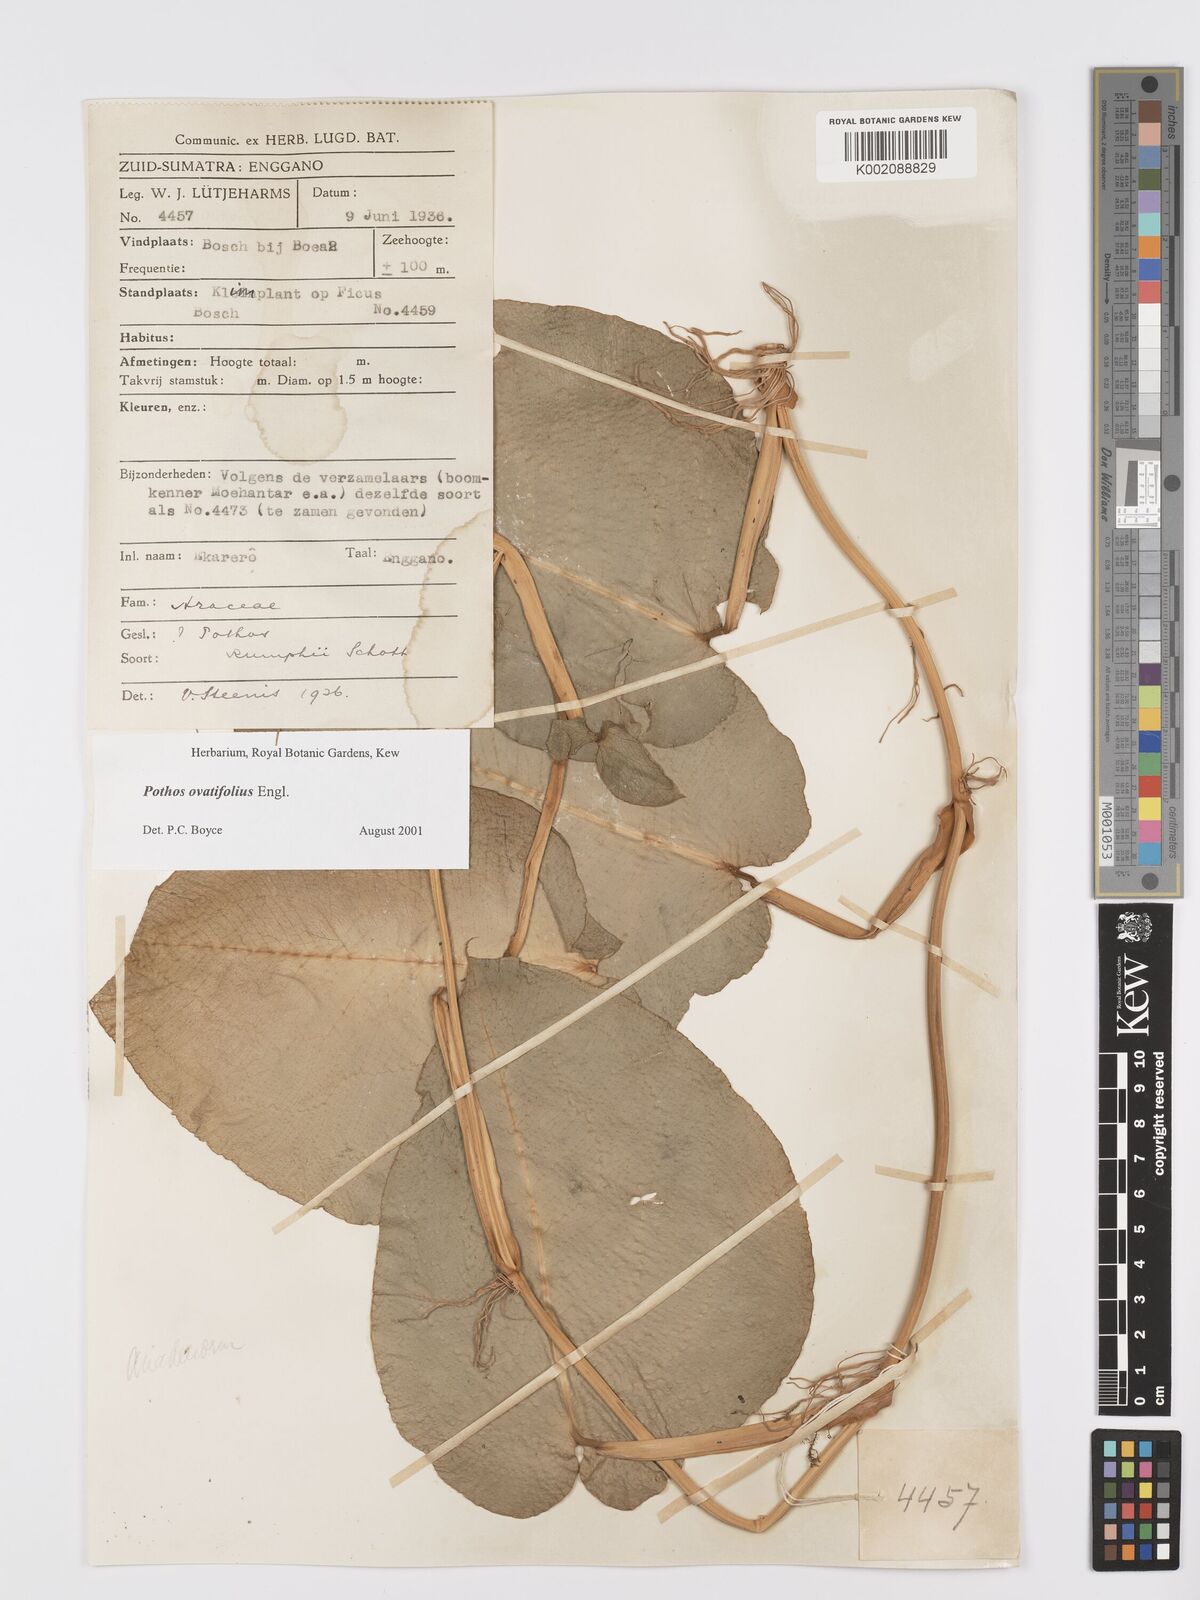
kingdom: Plantae
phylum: Tracheophyta
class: Liliopsida
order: Alismatales
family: Araceae
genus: Pothos
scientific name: Pothos ovatifolius
